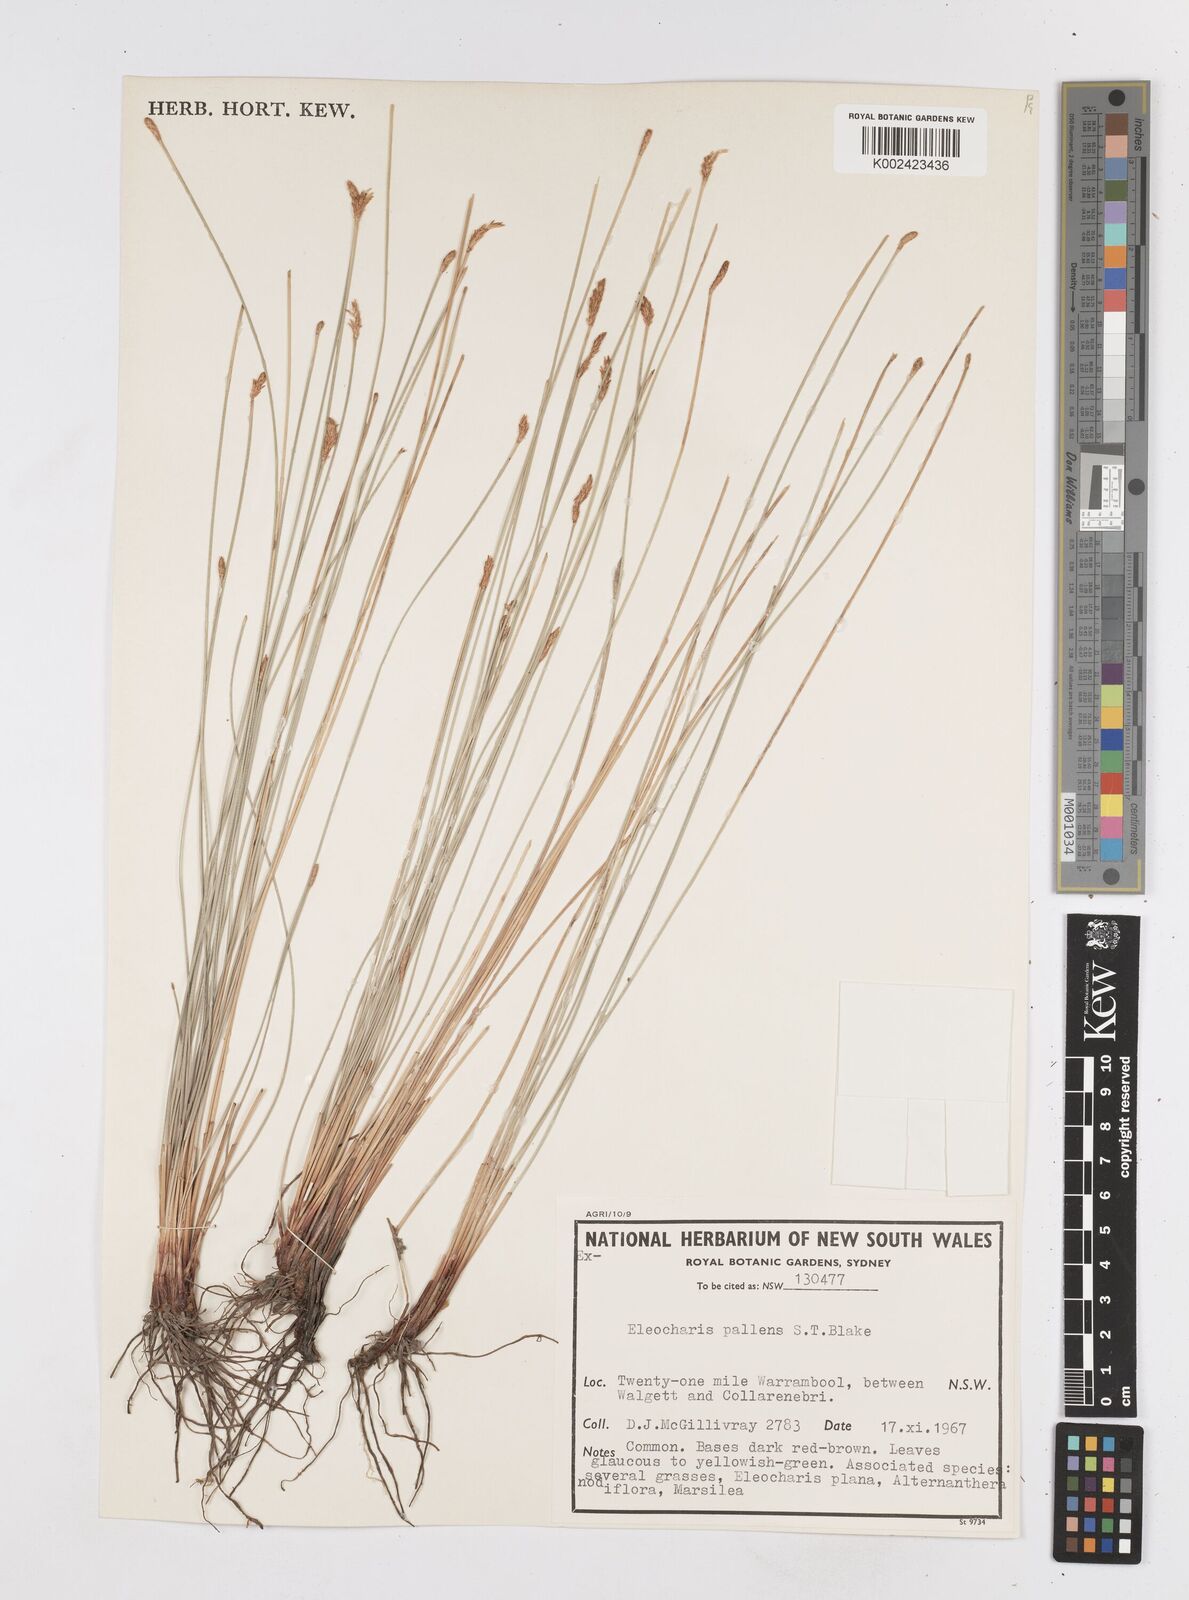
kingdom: Plantae
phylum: Tracheophyta
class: Liliopsida
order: Poales
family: Cyperaceae
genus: Eleocharis
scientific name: Eleocharis acuta
